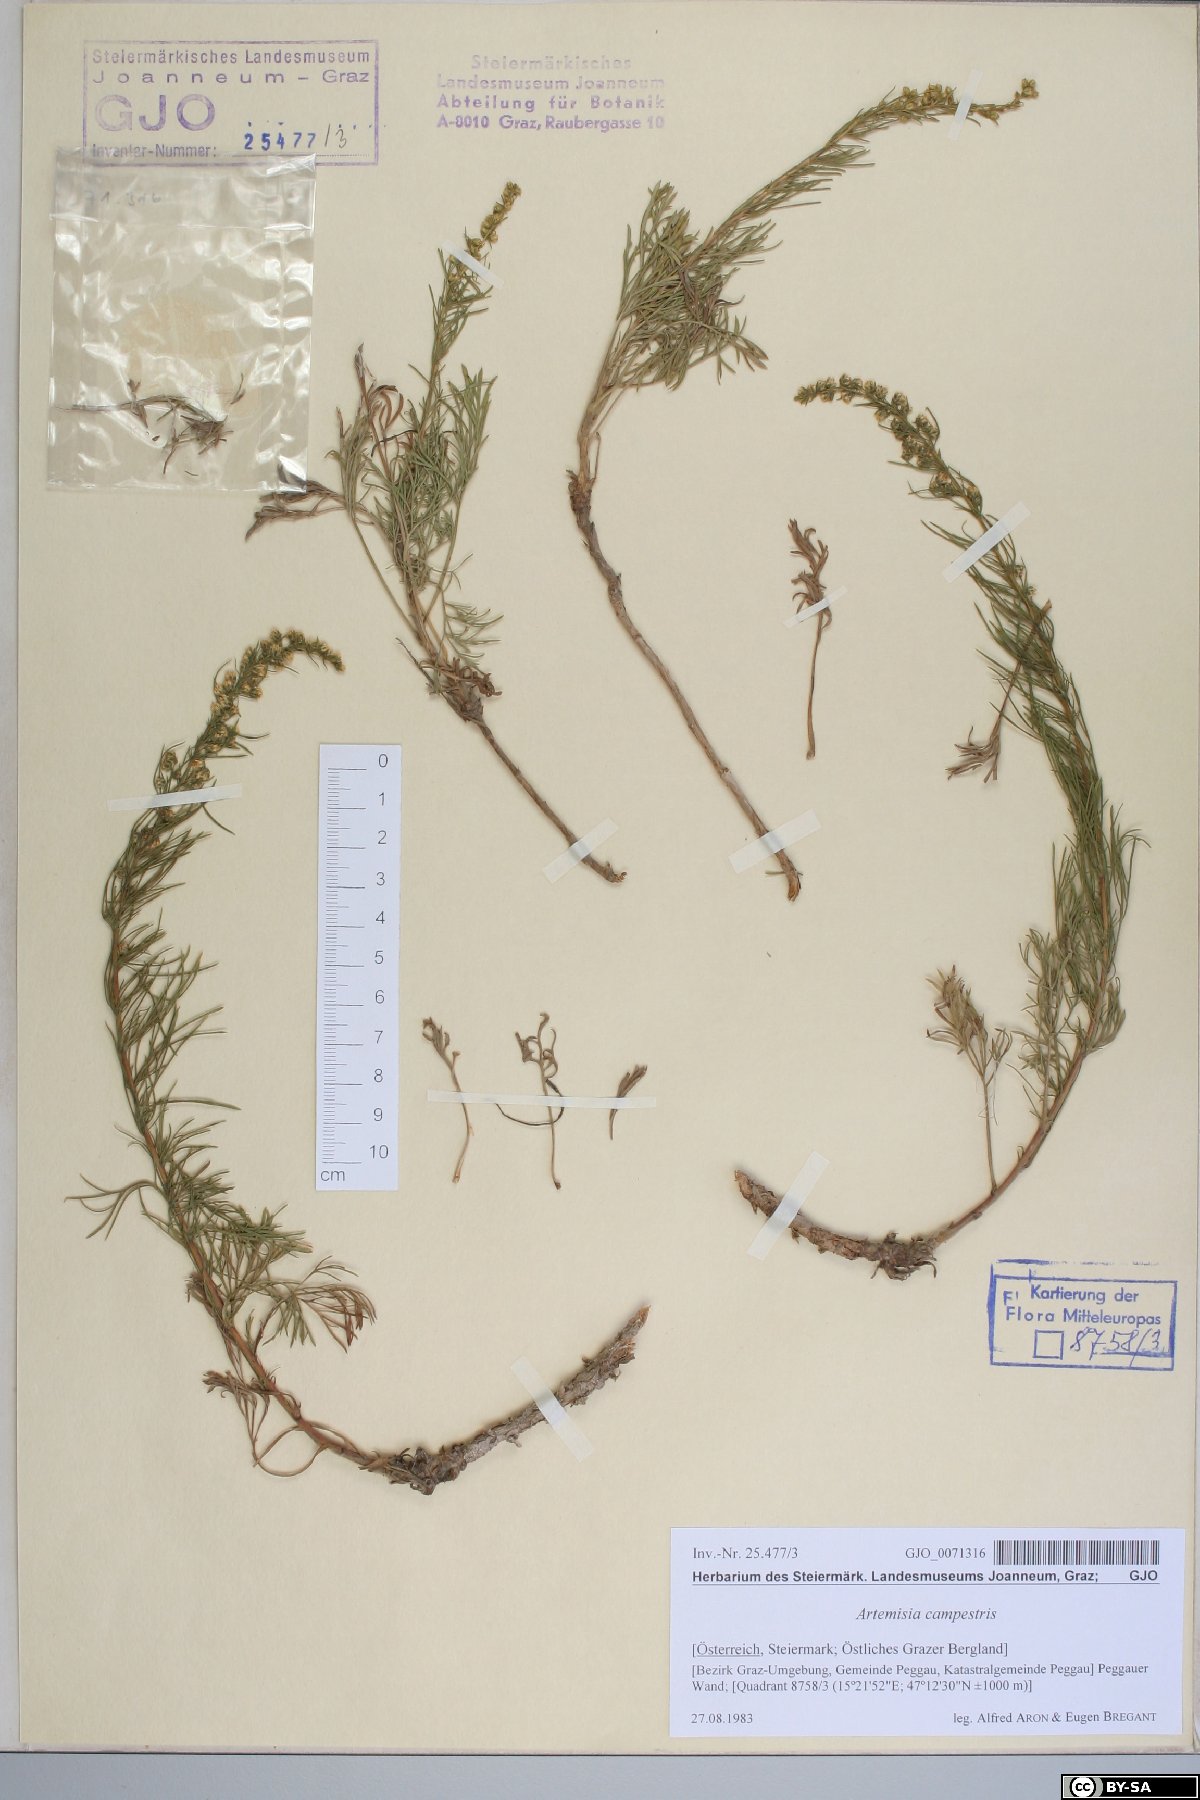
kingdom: Plantae
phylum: Tracheophyta
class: Magnoliopsida
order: Asterales
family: Asteraceae
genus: Artemisia
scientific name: Artemisia campestris
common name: Field wormwood
